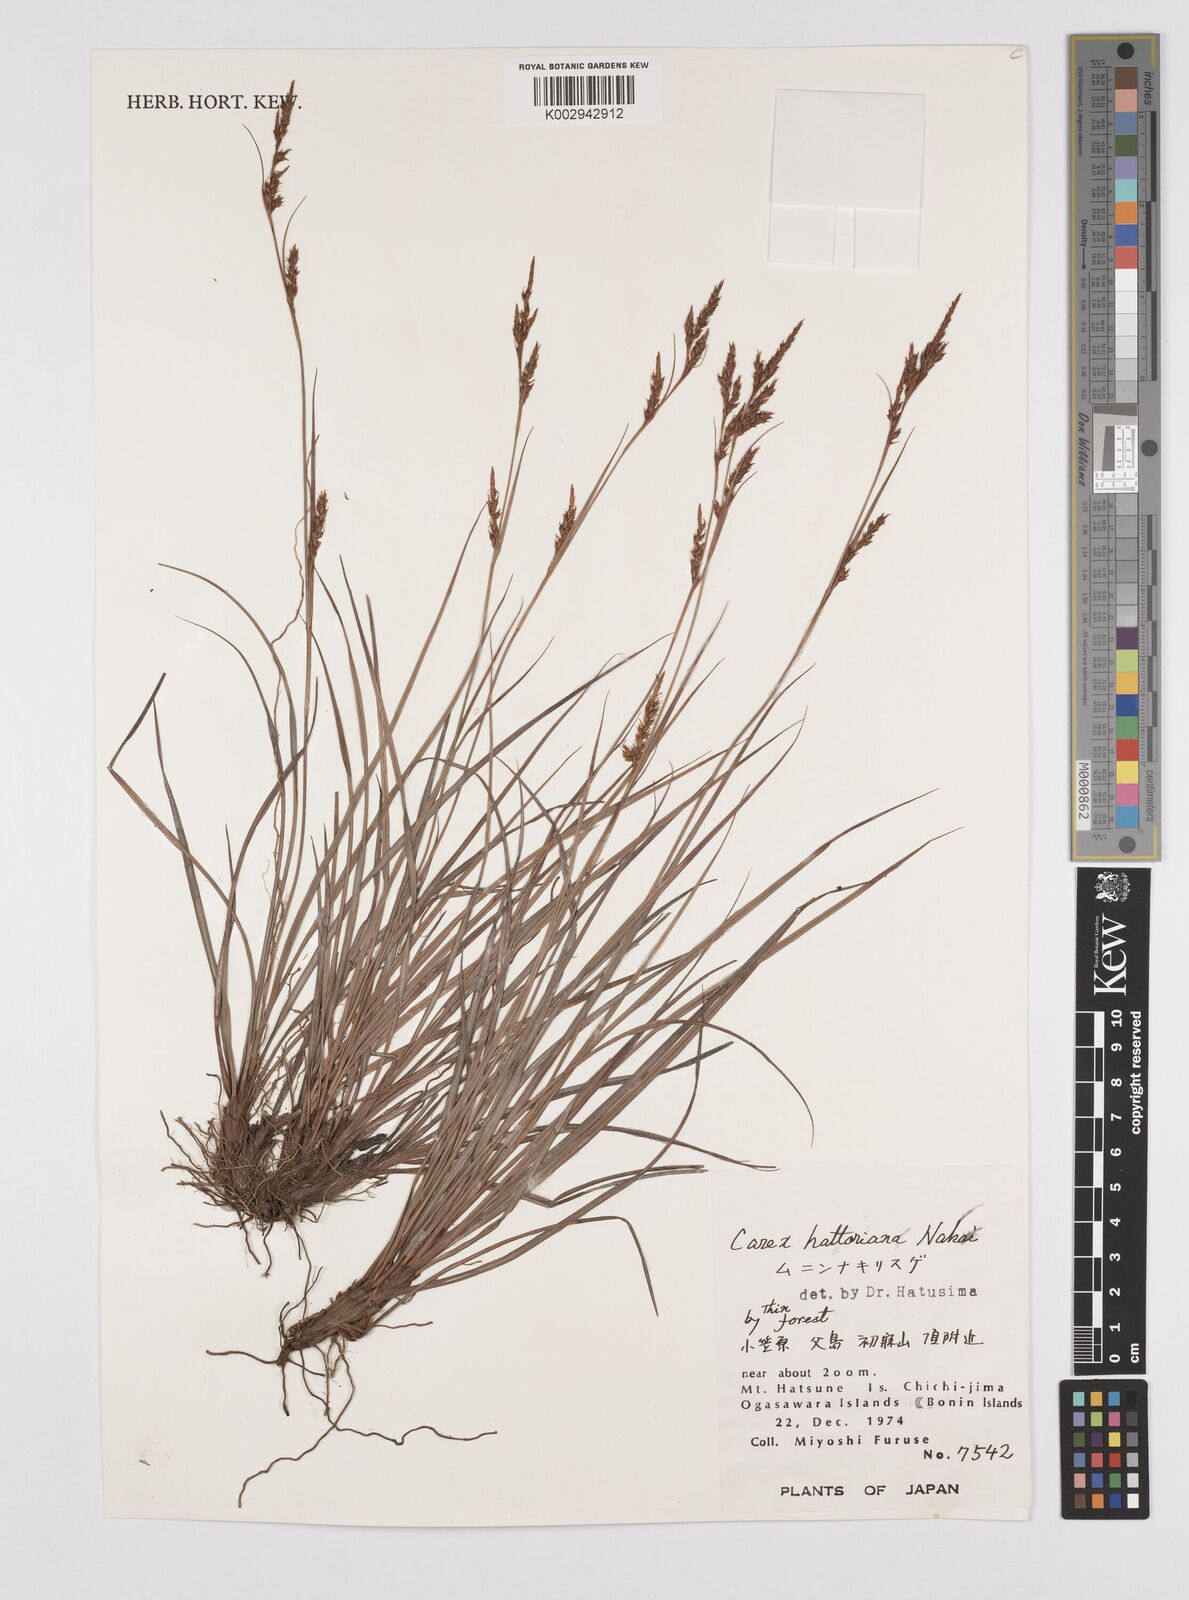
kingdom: Plantae
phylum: Tracheophyta
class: Liliopsida
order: Poales
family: Cyperaceae
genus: Carex
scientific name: Carex hattoriana
